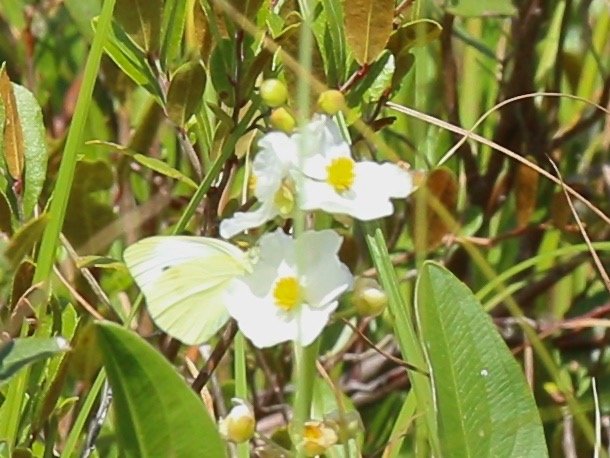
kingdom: Animalia
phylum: Arthropoda
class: Insecta
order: Lepidoptera
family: Pieridae
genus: Pieris
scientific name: Pieris rapae
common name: Cabbage White
